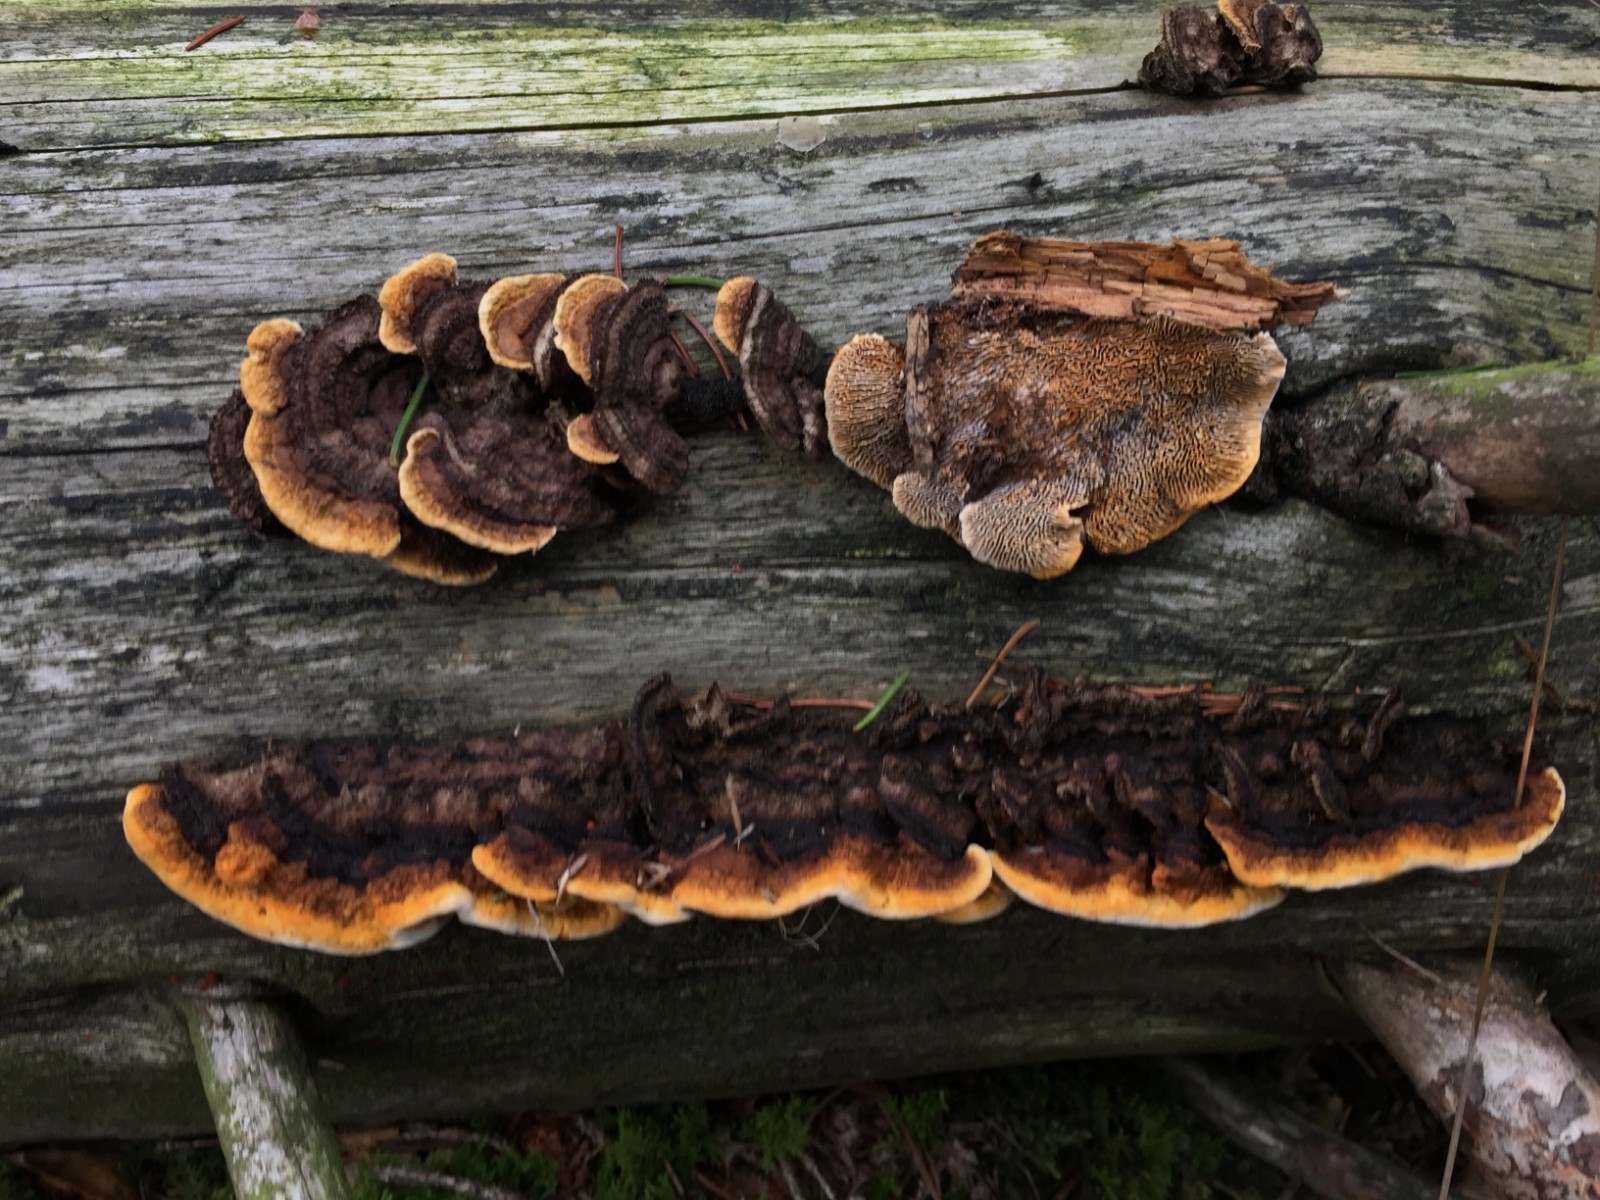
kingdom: Fungi
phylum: Basidiomycota
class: Agaricomycetes
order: Gloeophyllales
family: Gloeophyllaceae
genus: Gloeophyllum
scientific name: Gloeophyllum sepiarium
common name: fyrre-korkhat
